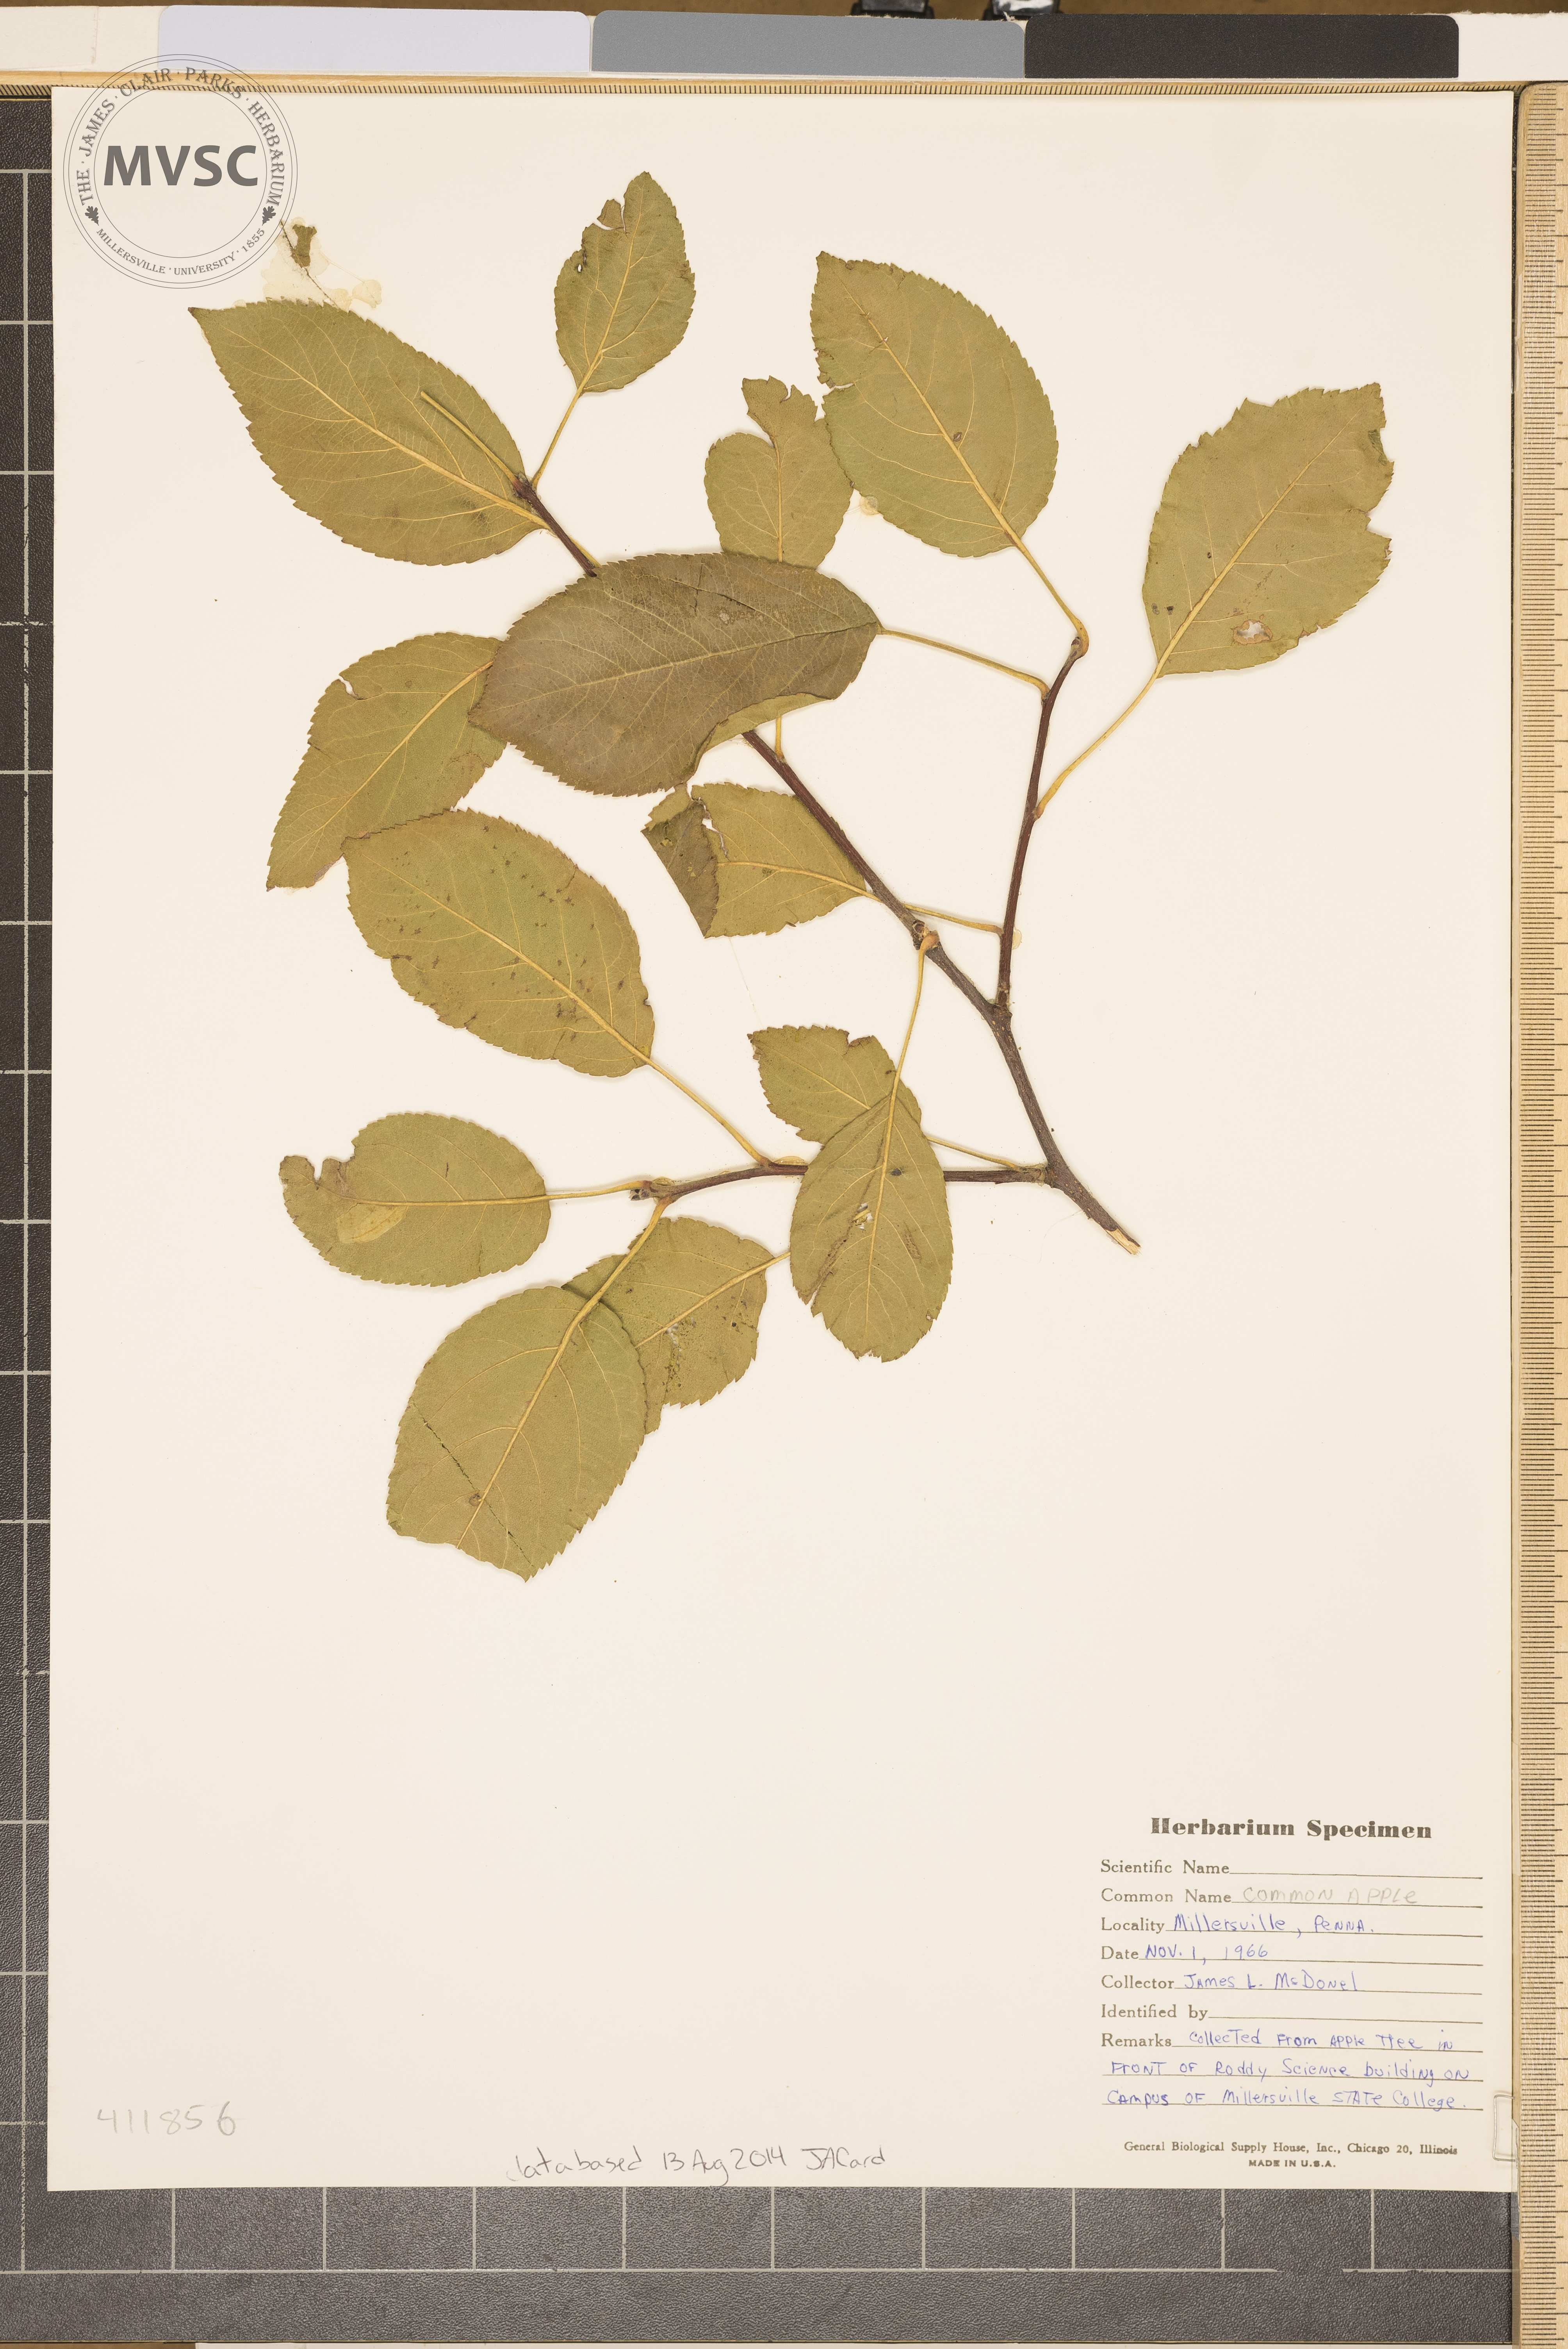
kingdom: Plantae
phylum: Tracheophyta
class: Magnoliopsida
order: Rosales
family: Rosaceae
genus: Malus
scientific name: Malus toringo
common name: Japanese crabapple
